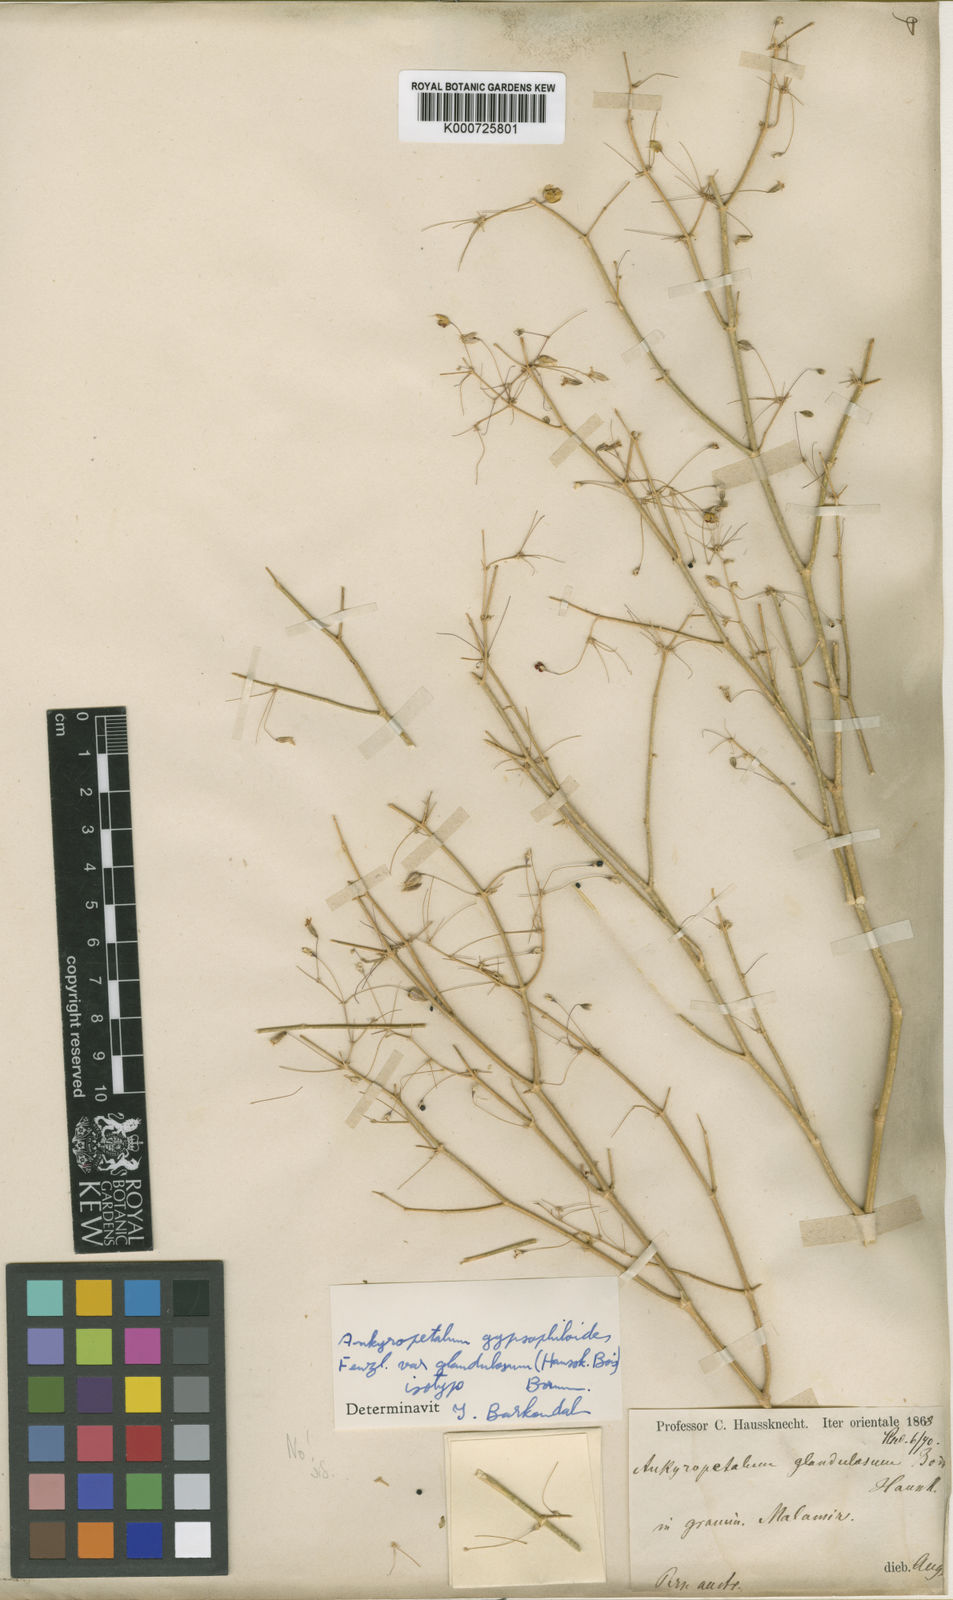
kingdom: Plantae
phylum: Tracheophyta
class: Magnoliopsida
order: Caryophyllales
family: Caryophyllaceae
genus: Mesostemma
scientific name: Mesostemma gypsophiloides
